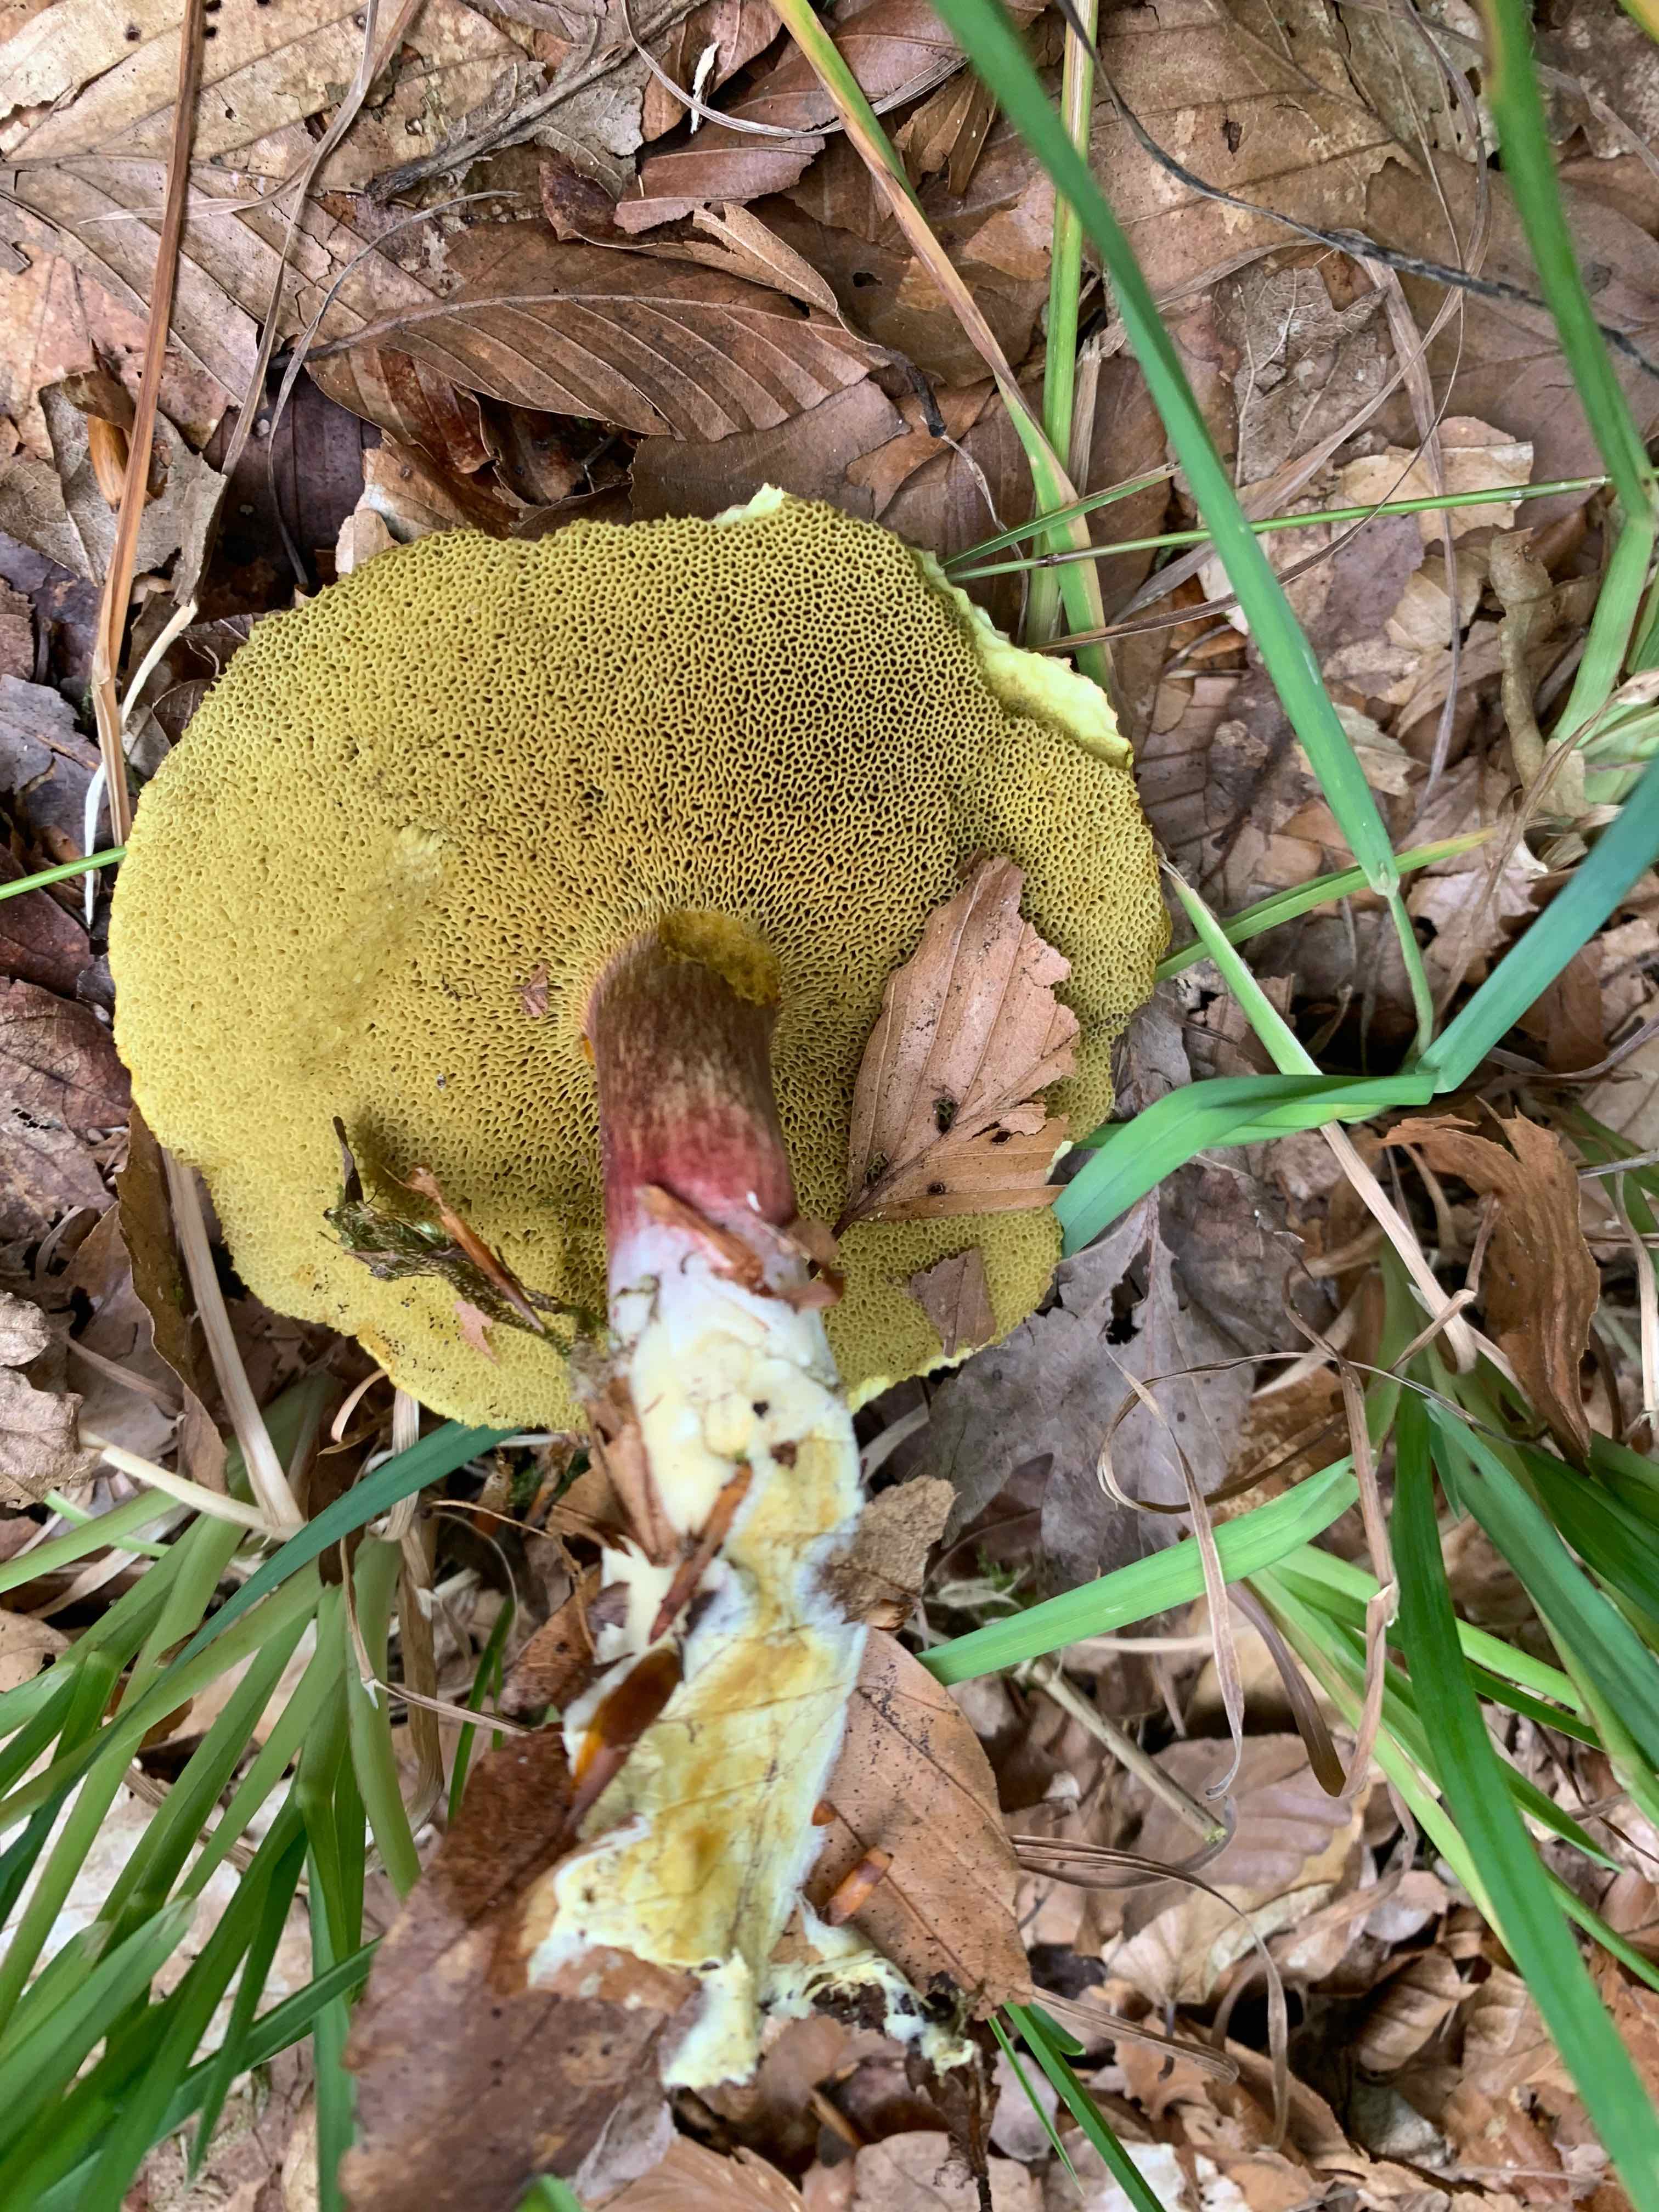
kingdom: Fungi
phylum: Basidiomycota
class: Agaricomycetes
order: Boletales
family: Boletaceae
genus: Xerocomellus
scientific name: Xerocomellus
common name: dværgrørhat
